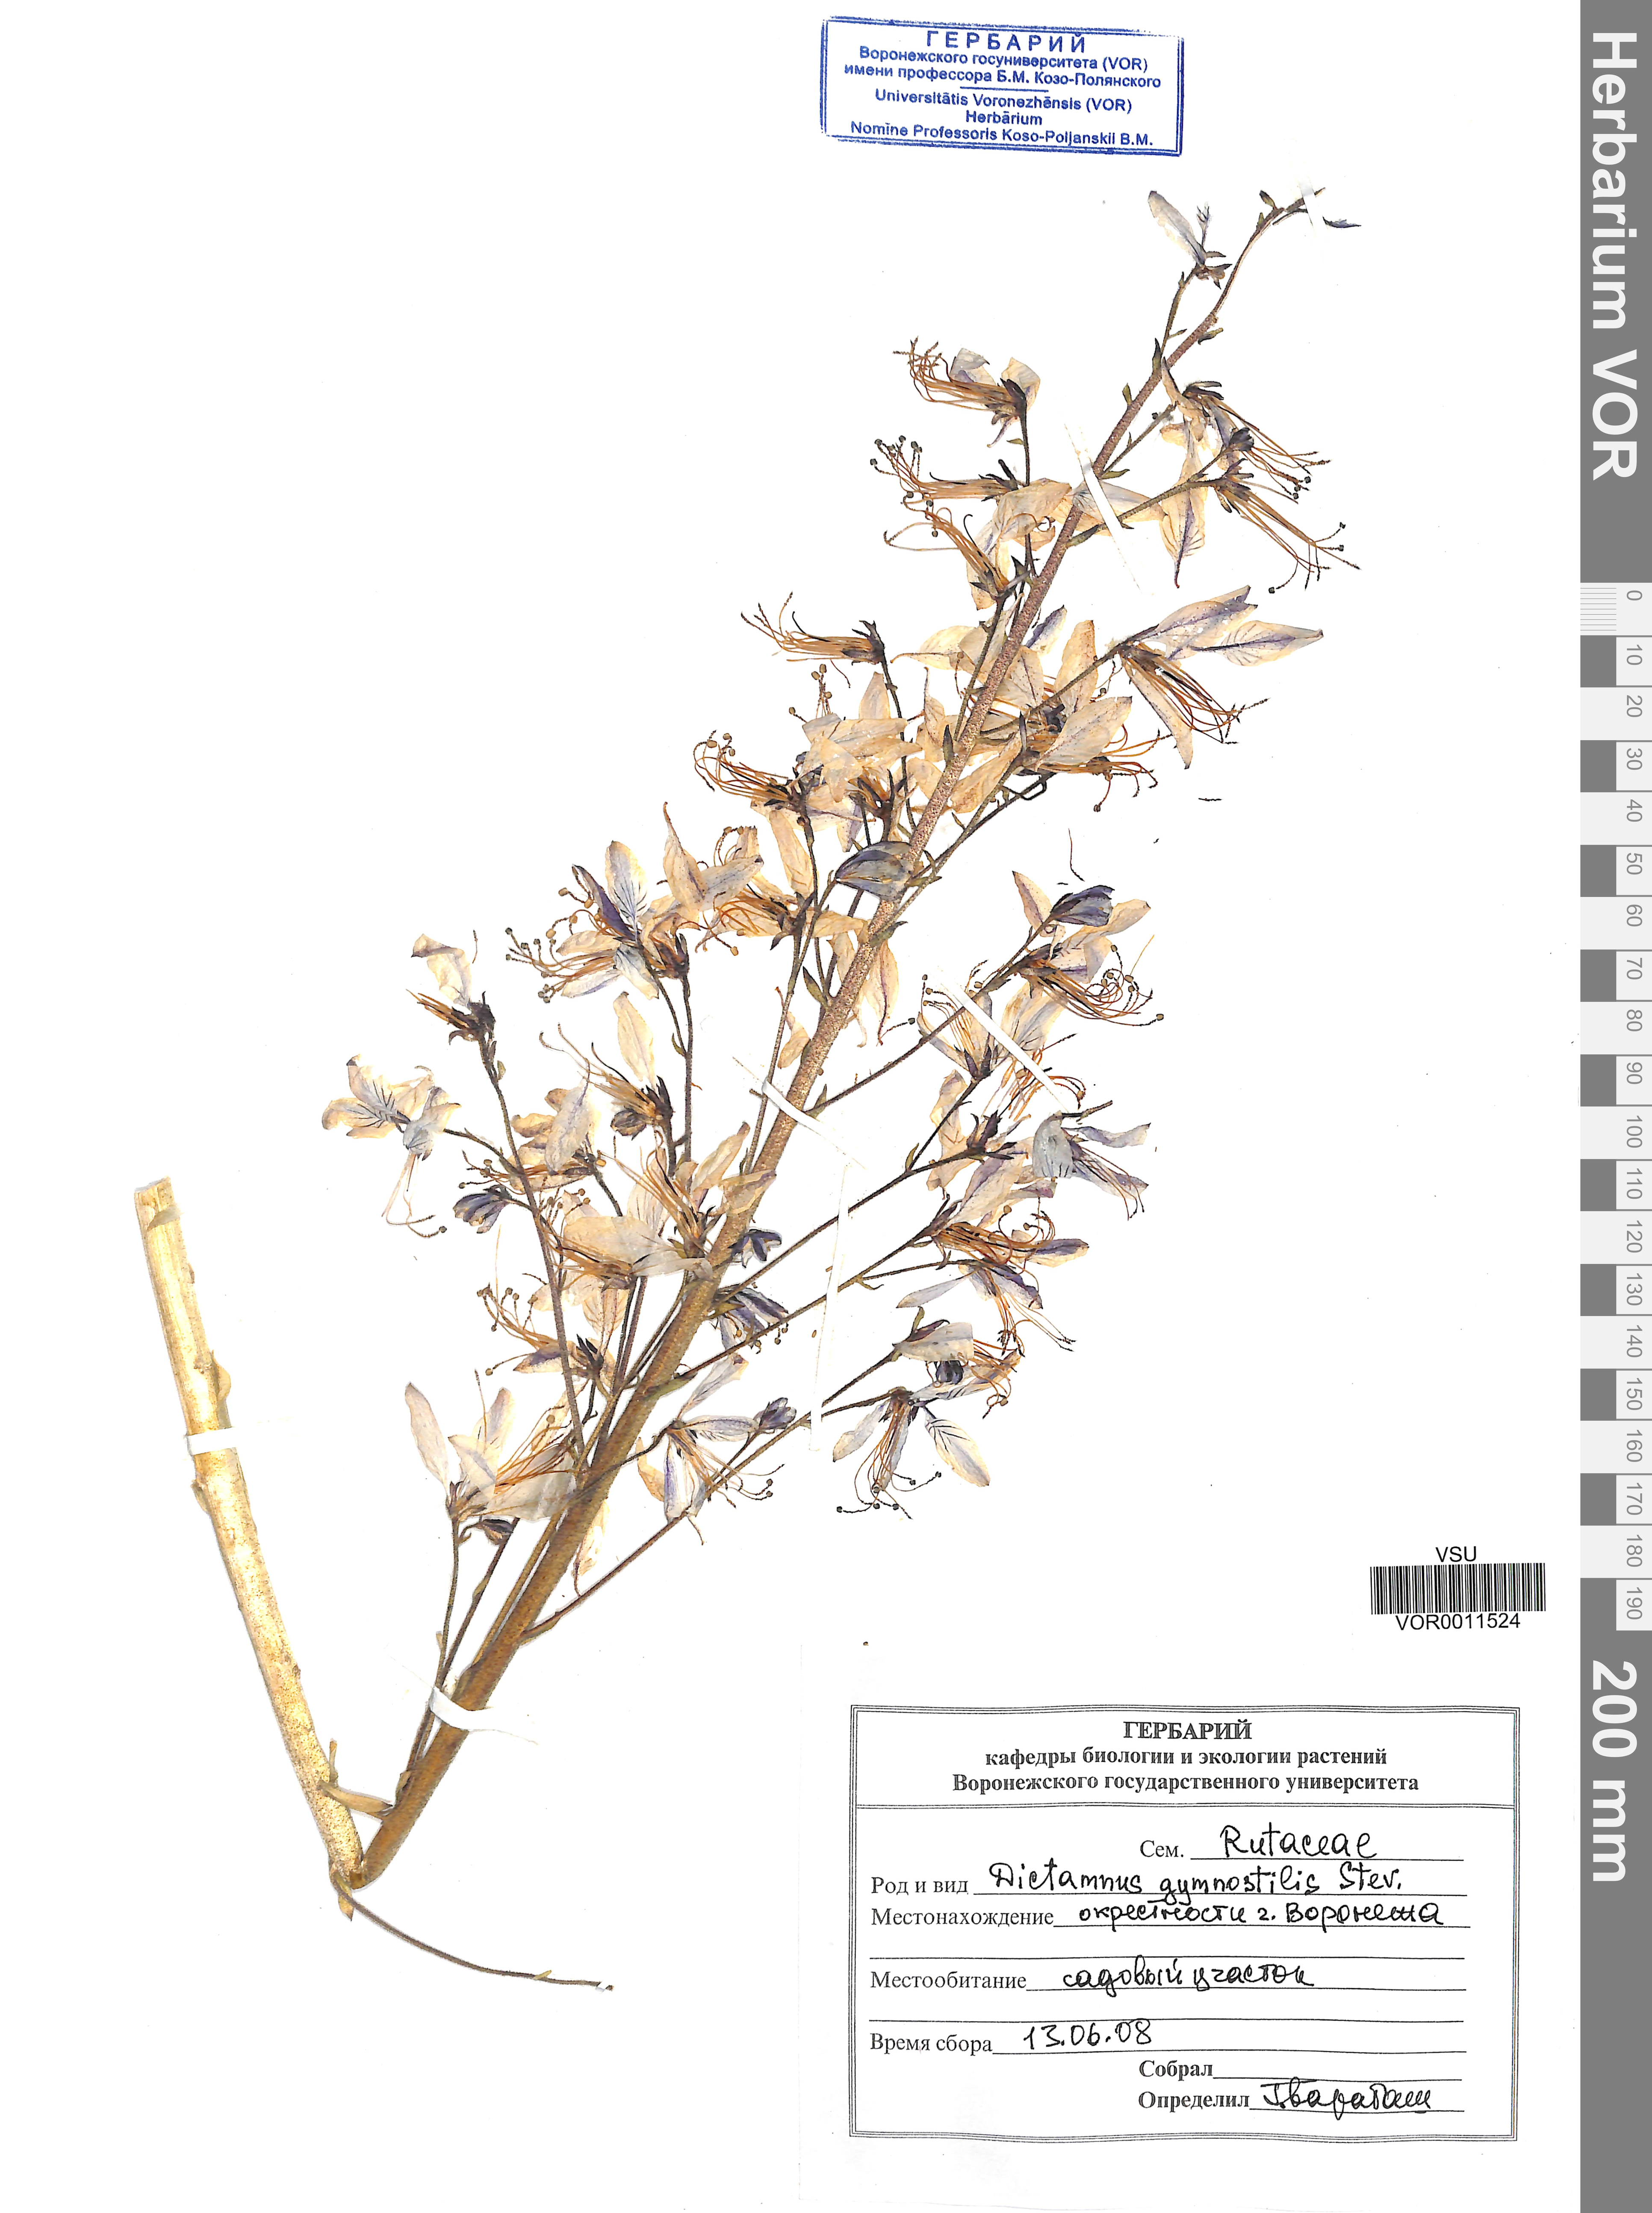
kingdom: Plantae
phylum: Tracheophyta
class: Magnoliopsida
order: Sapindales
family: Rutaceae
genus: Dictamnus
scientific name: Dictamnus albus
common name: Gasplant
